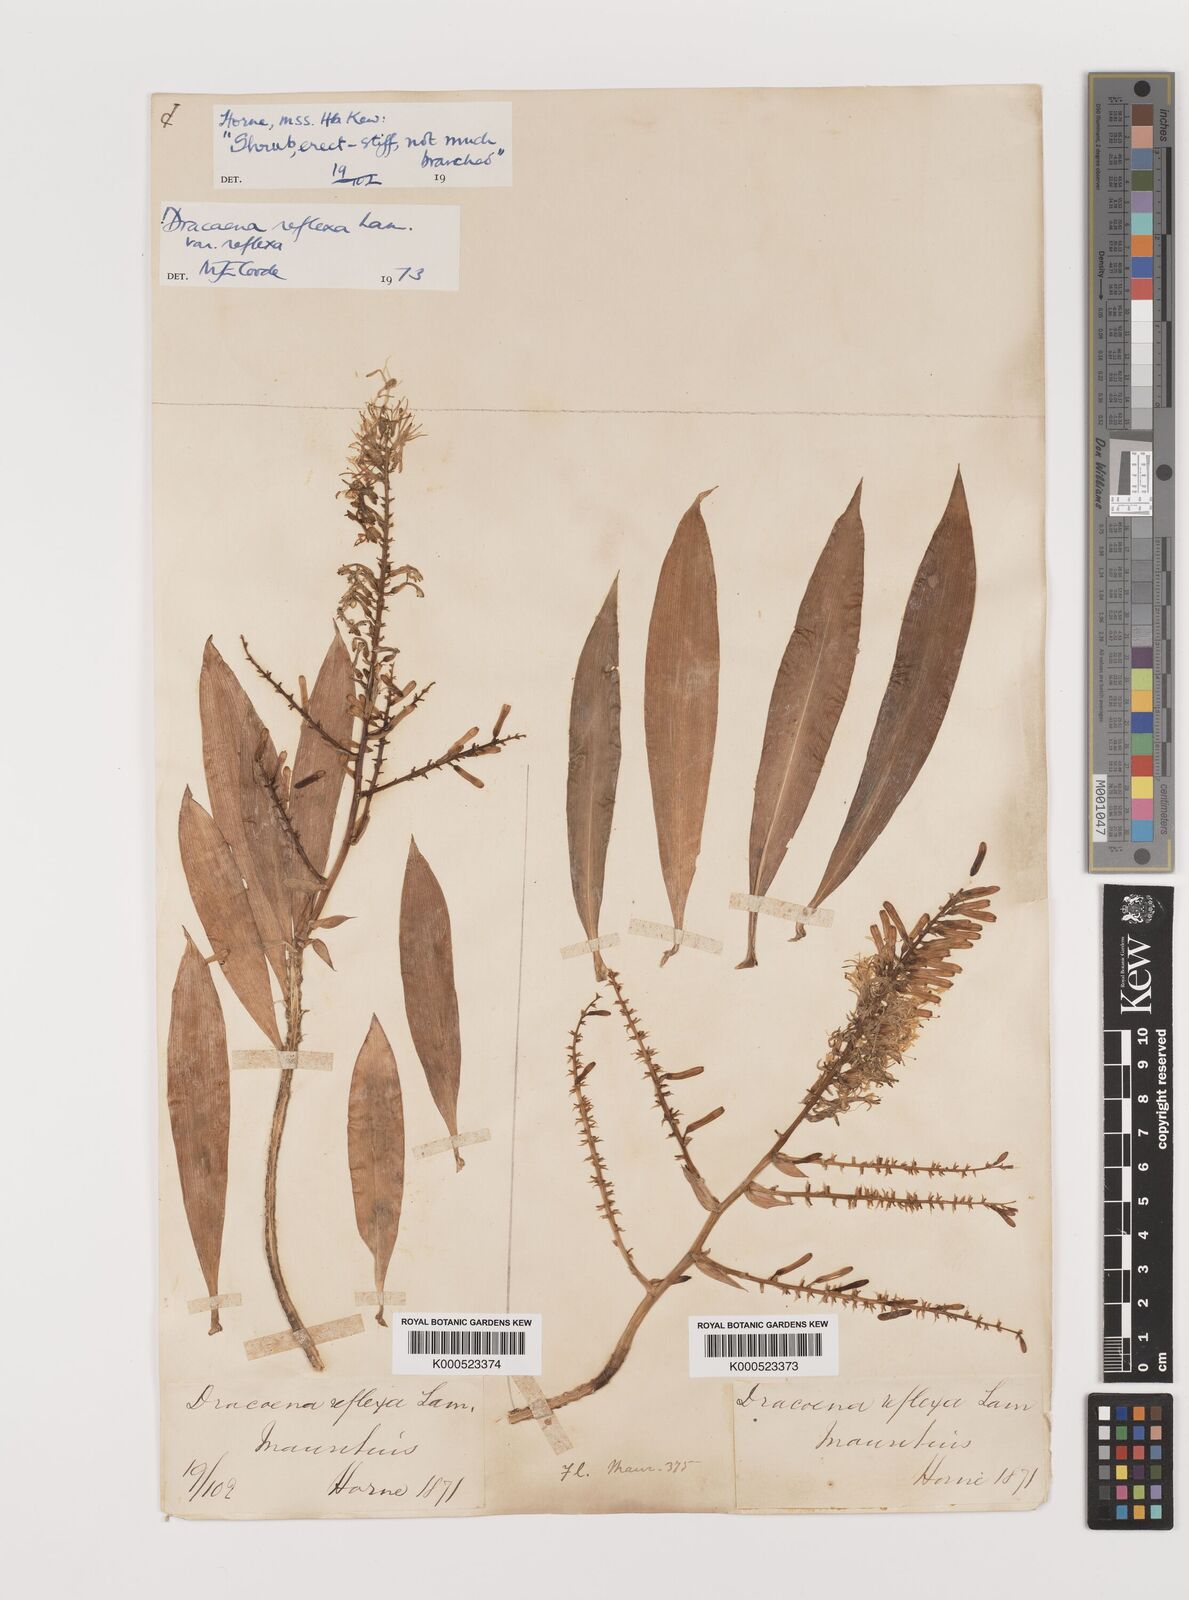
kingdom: Plantae
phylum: Tracheophyta
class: Liliopsida
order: Asparagales
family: Asparagaceae
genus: Dracaena
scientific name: Dracaena reflexa
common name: Song-of-india
